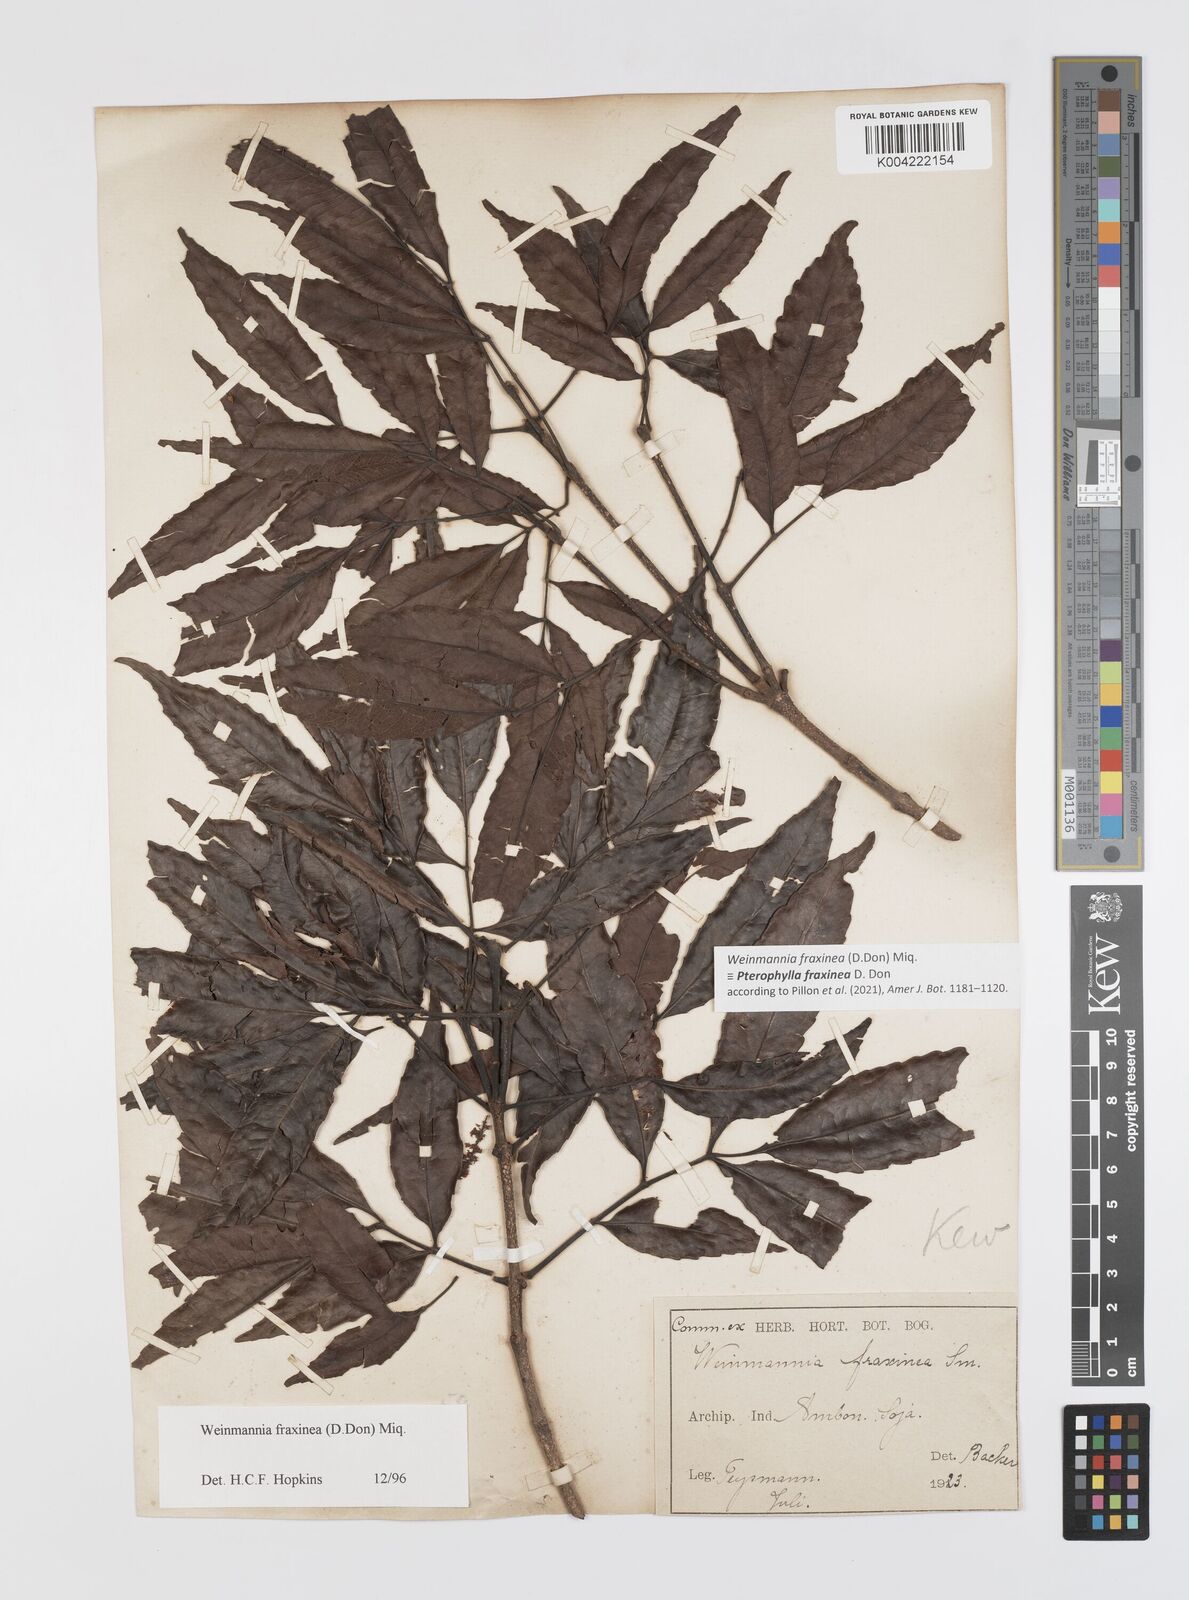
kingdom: Plantae
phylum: Tracheophyta
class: Magnoliopsida
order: Oxalidales
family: Cunoniaceae
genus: Pterophylla
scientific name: Pterophylla fraxinea
